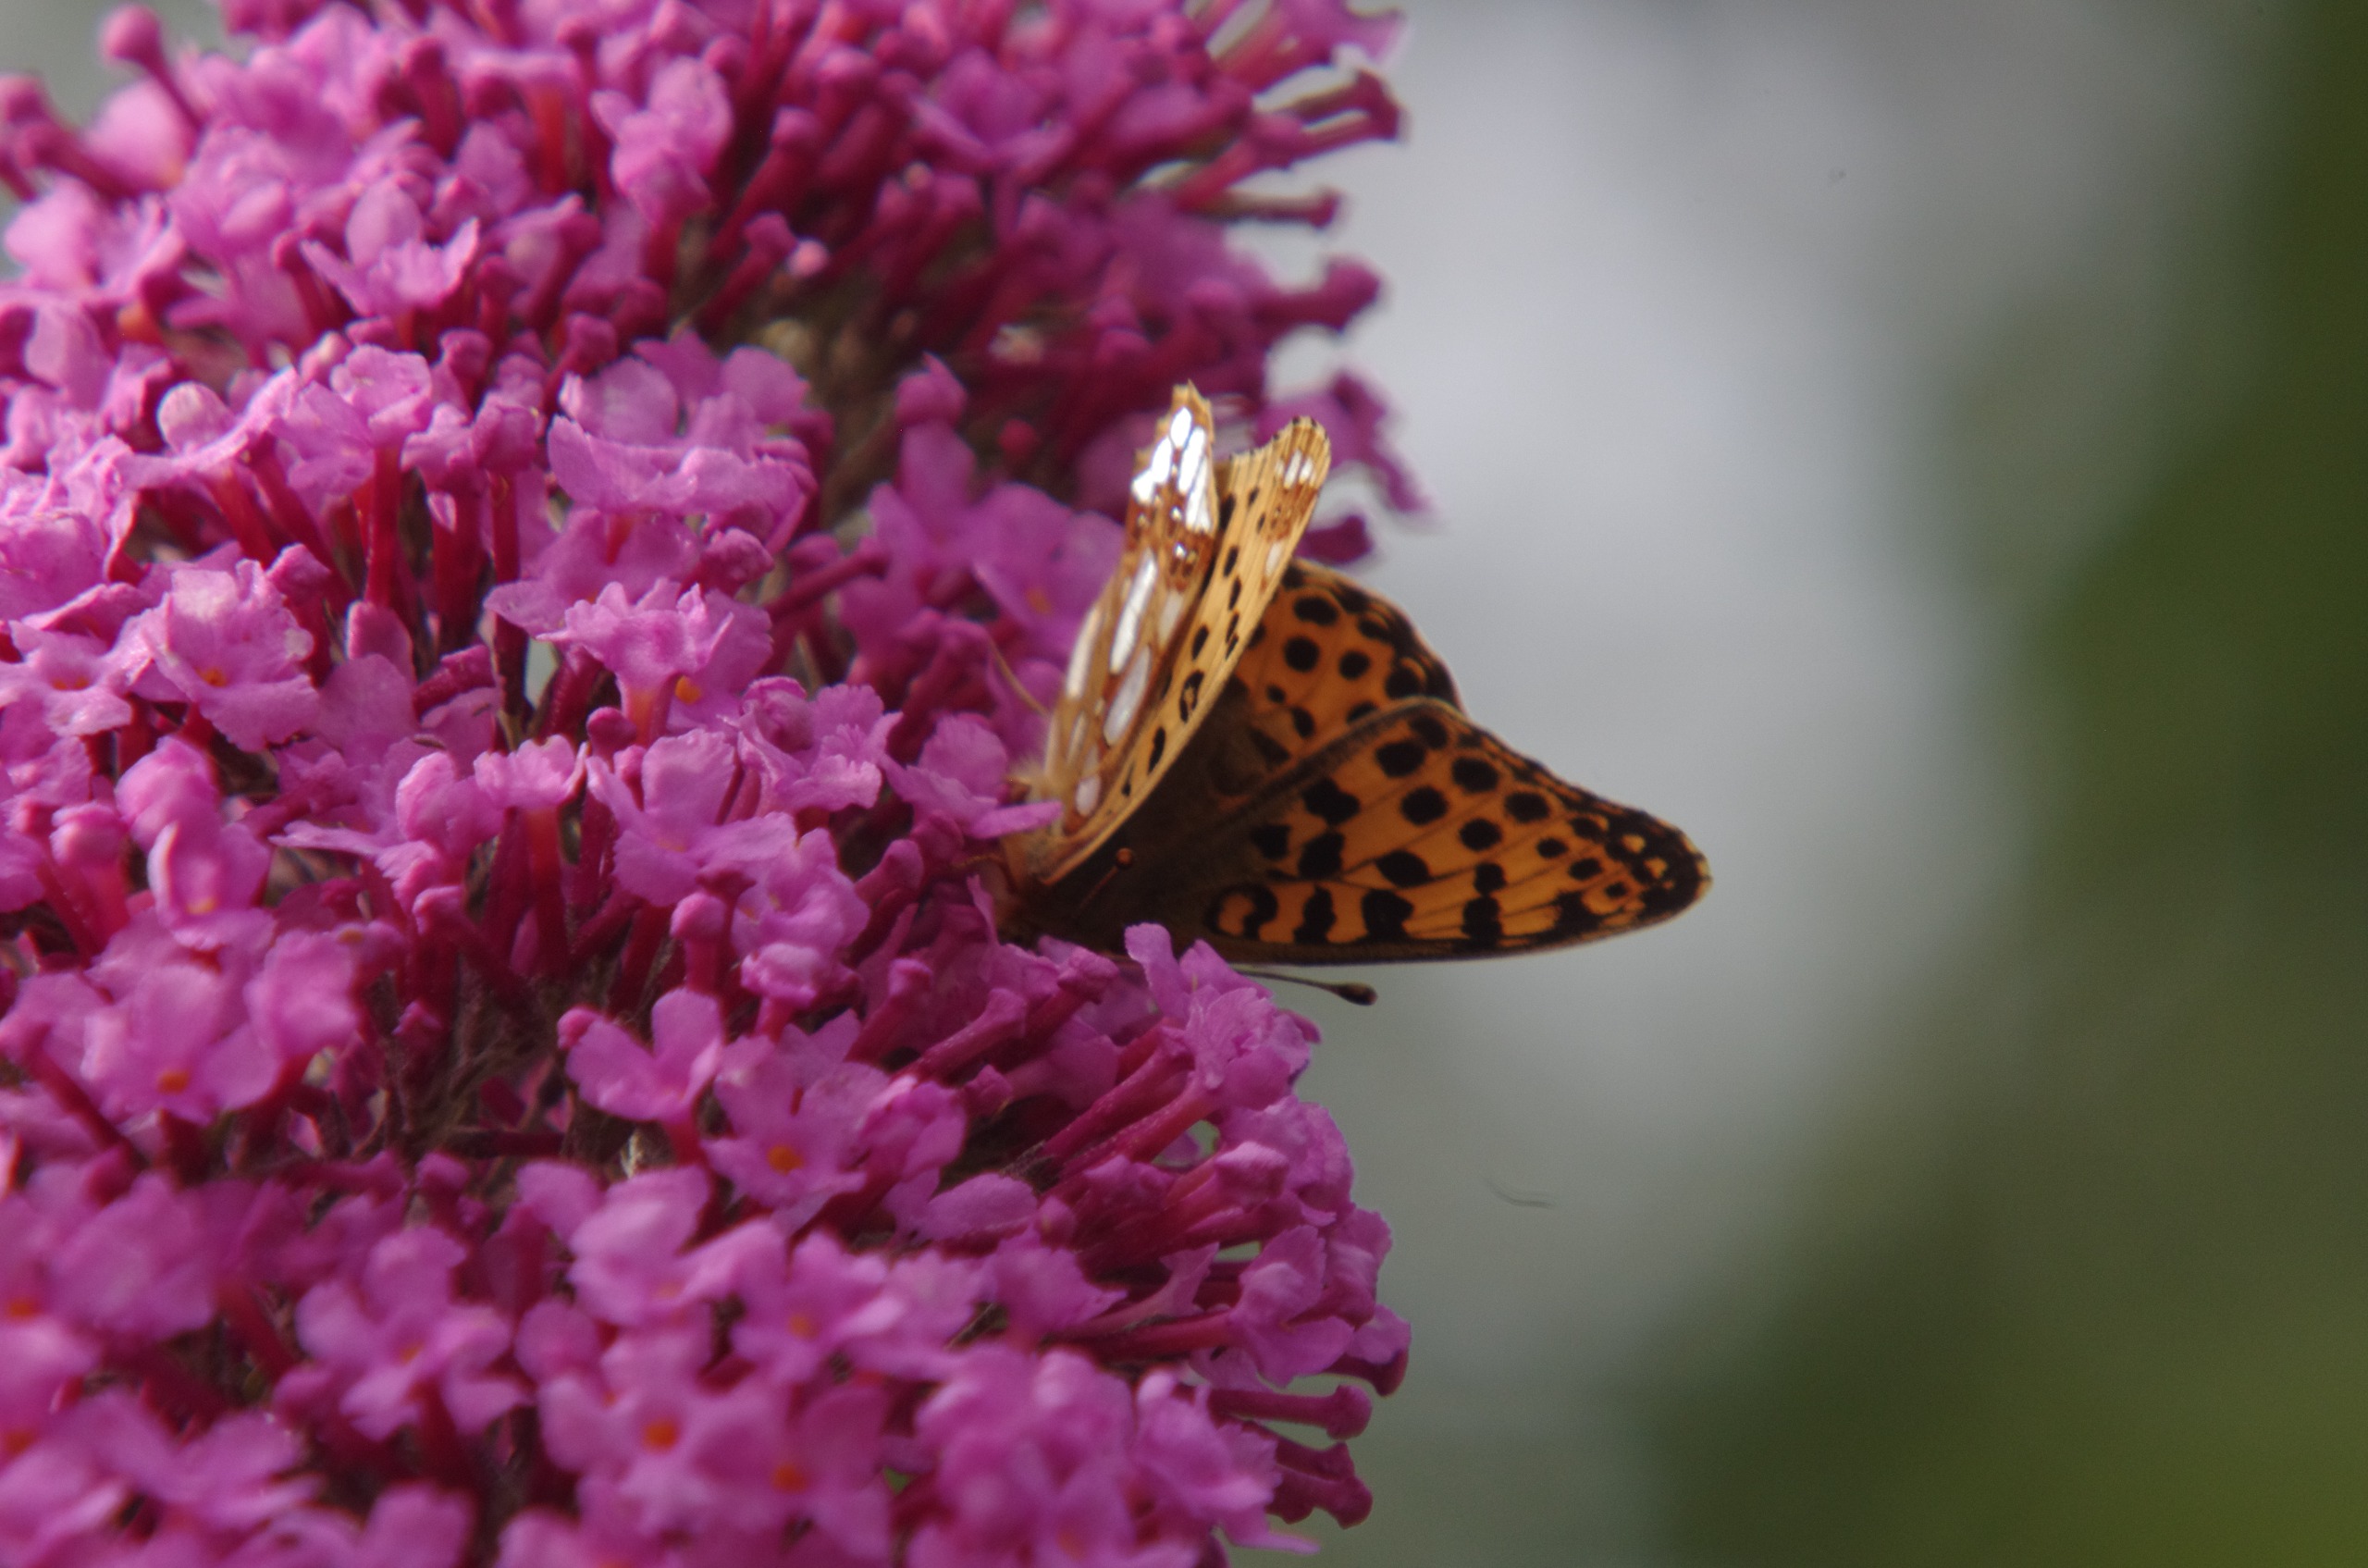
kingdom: Animalia
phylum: Arthropoda
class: Insecta
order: Lepidoptera
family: Nymphalidae
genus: Issoria
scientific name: Issoria lathonia
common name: Storplettet perlemorsommerfugl
